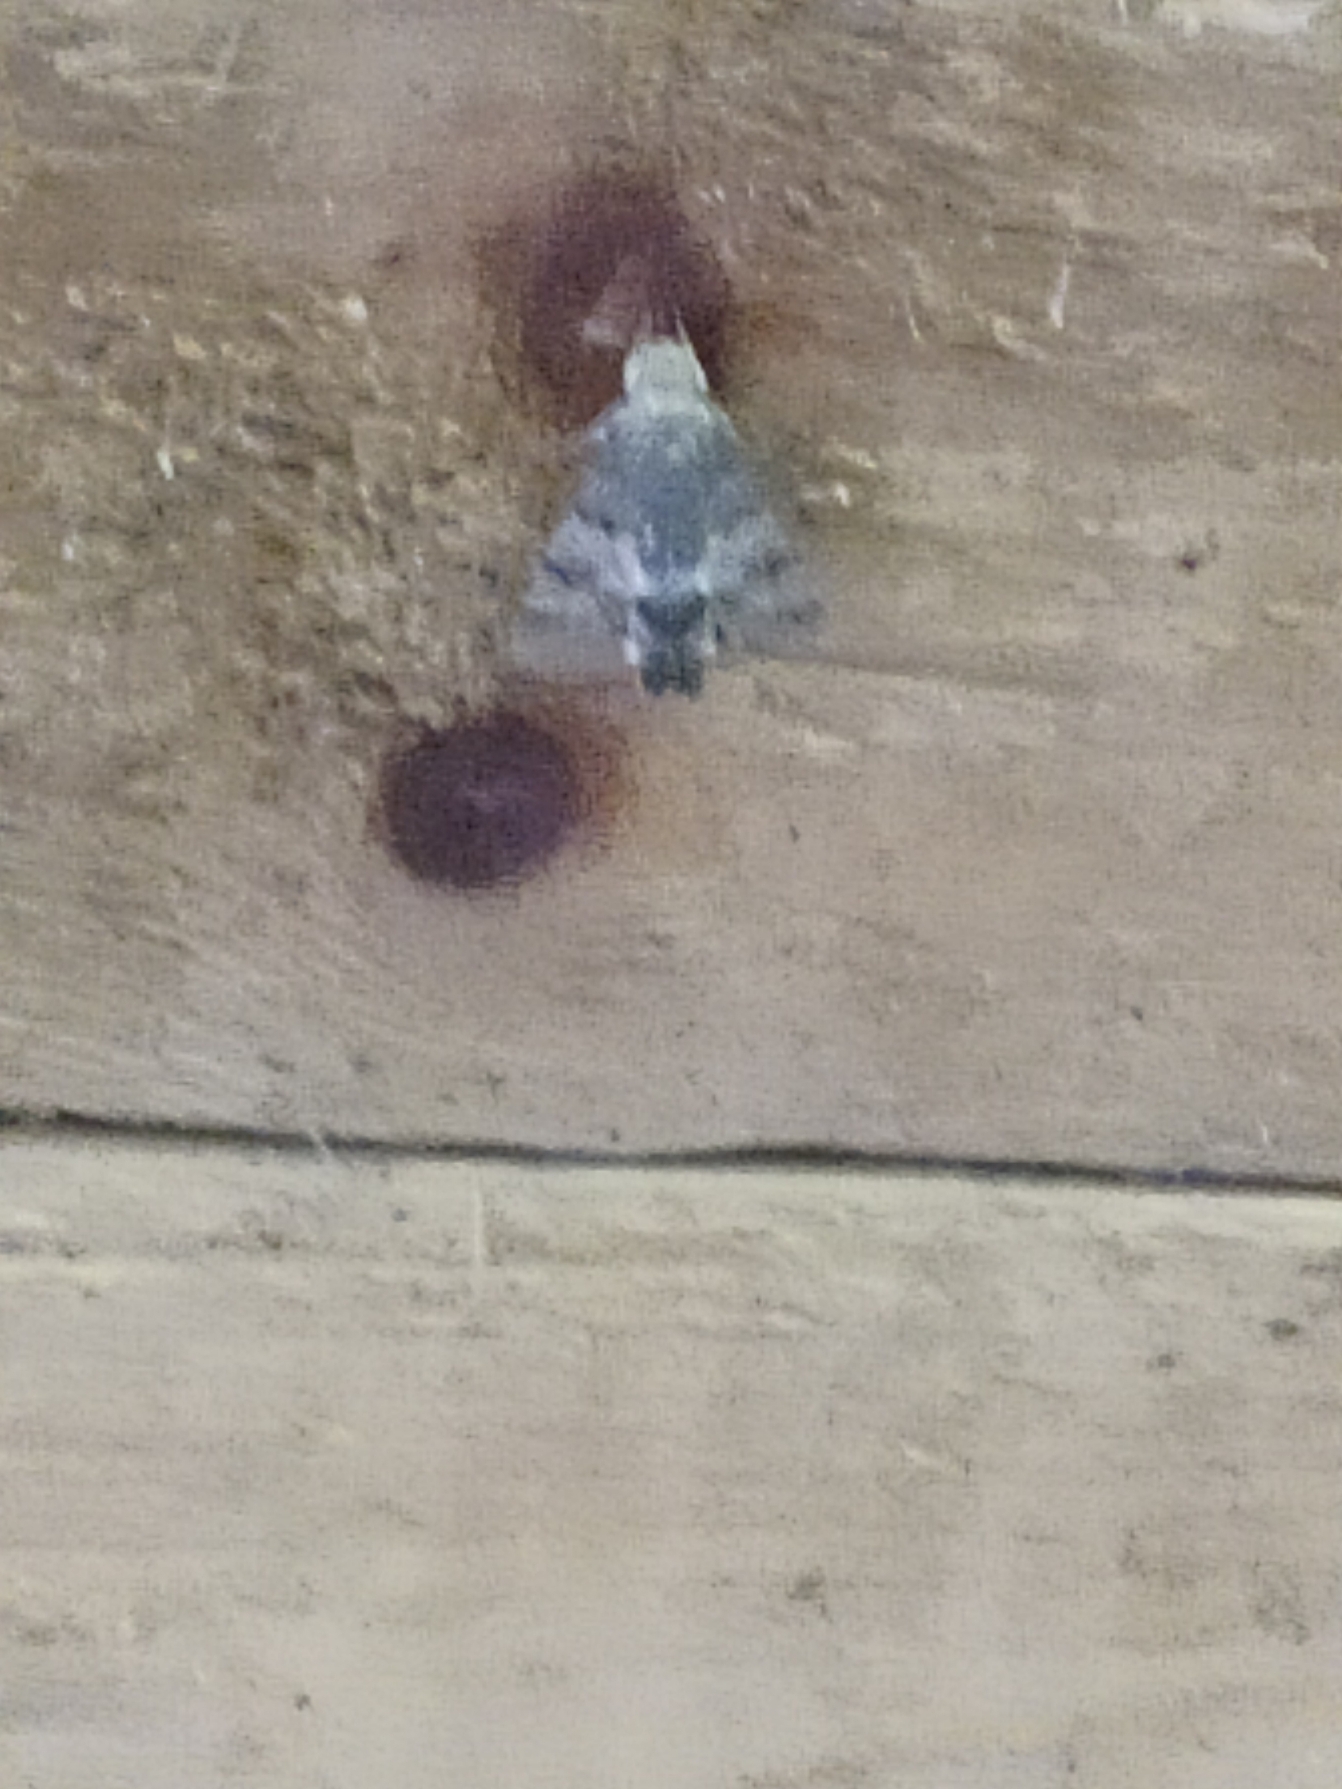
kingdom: Animalia
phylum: Arthropoda
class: Insecta
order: Lepidoptera
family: Sphingidae
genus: Macroglossum
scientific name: Macroglossum stellatarum
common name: Duehale
